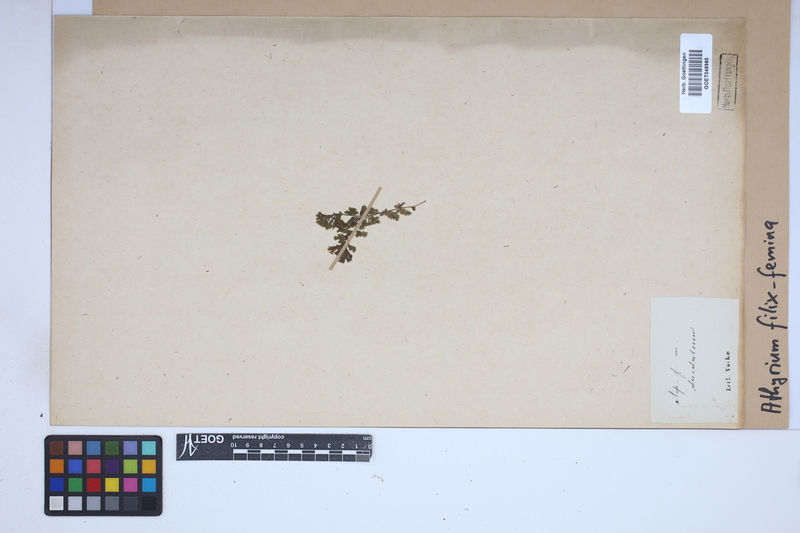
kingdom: Plantae
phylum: Tracheophyta
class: Polypodiopsida
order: Polypodiales
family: Athyriaceae
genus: Athyrium
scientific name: Athyrium filix-femina
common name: Lady fern
